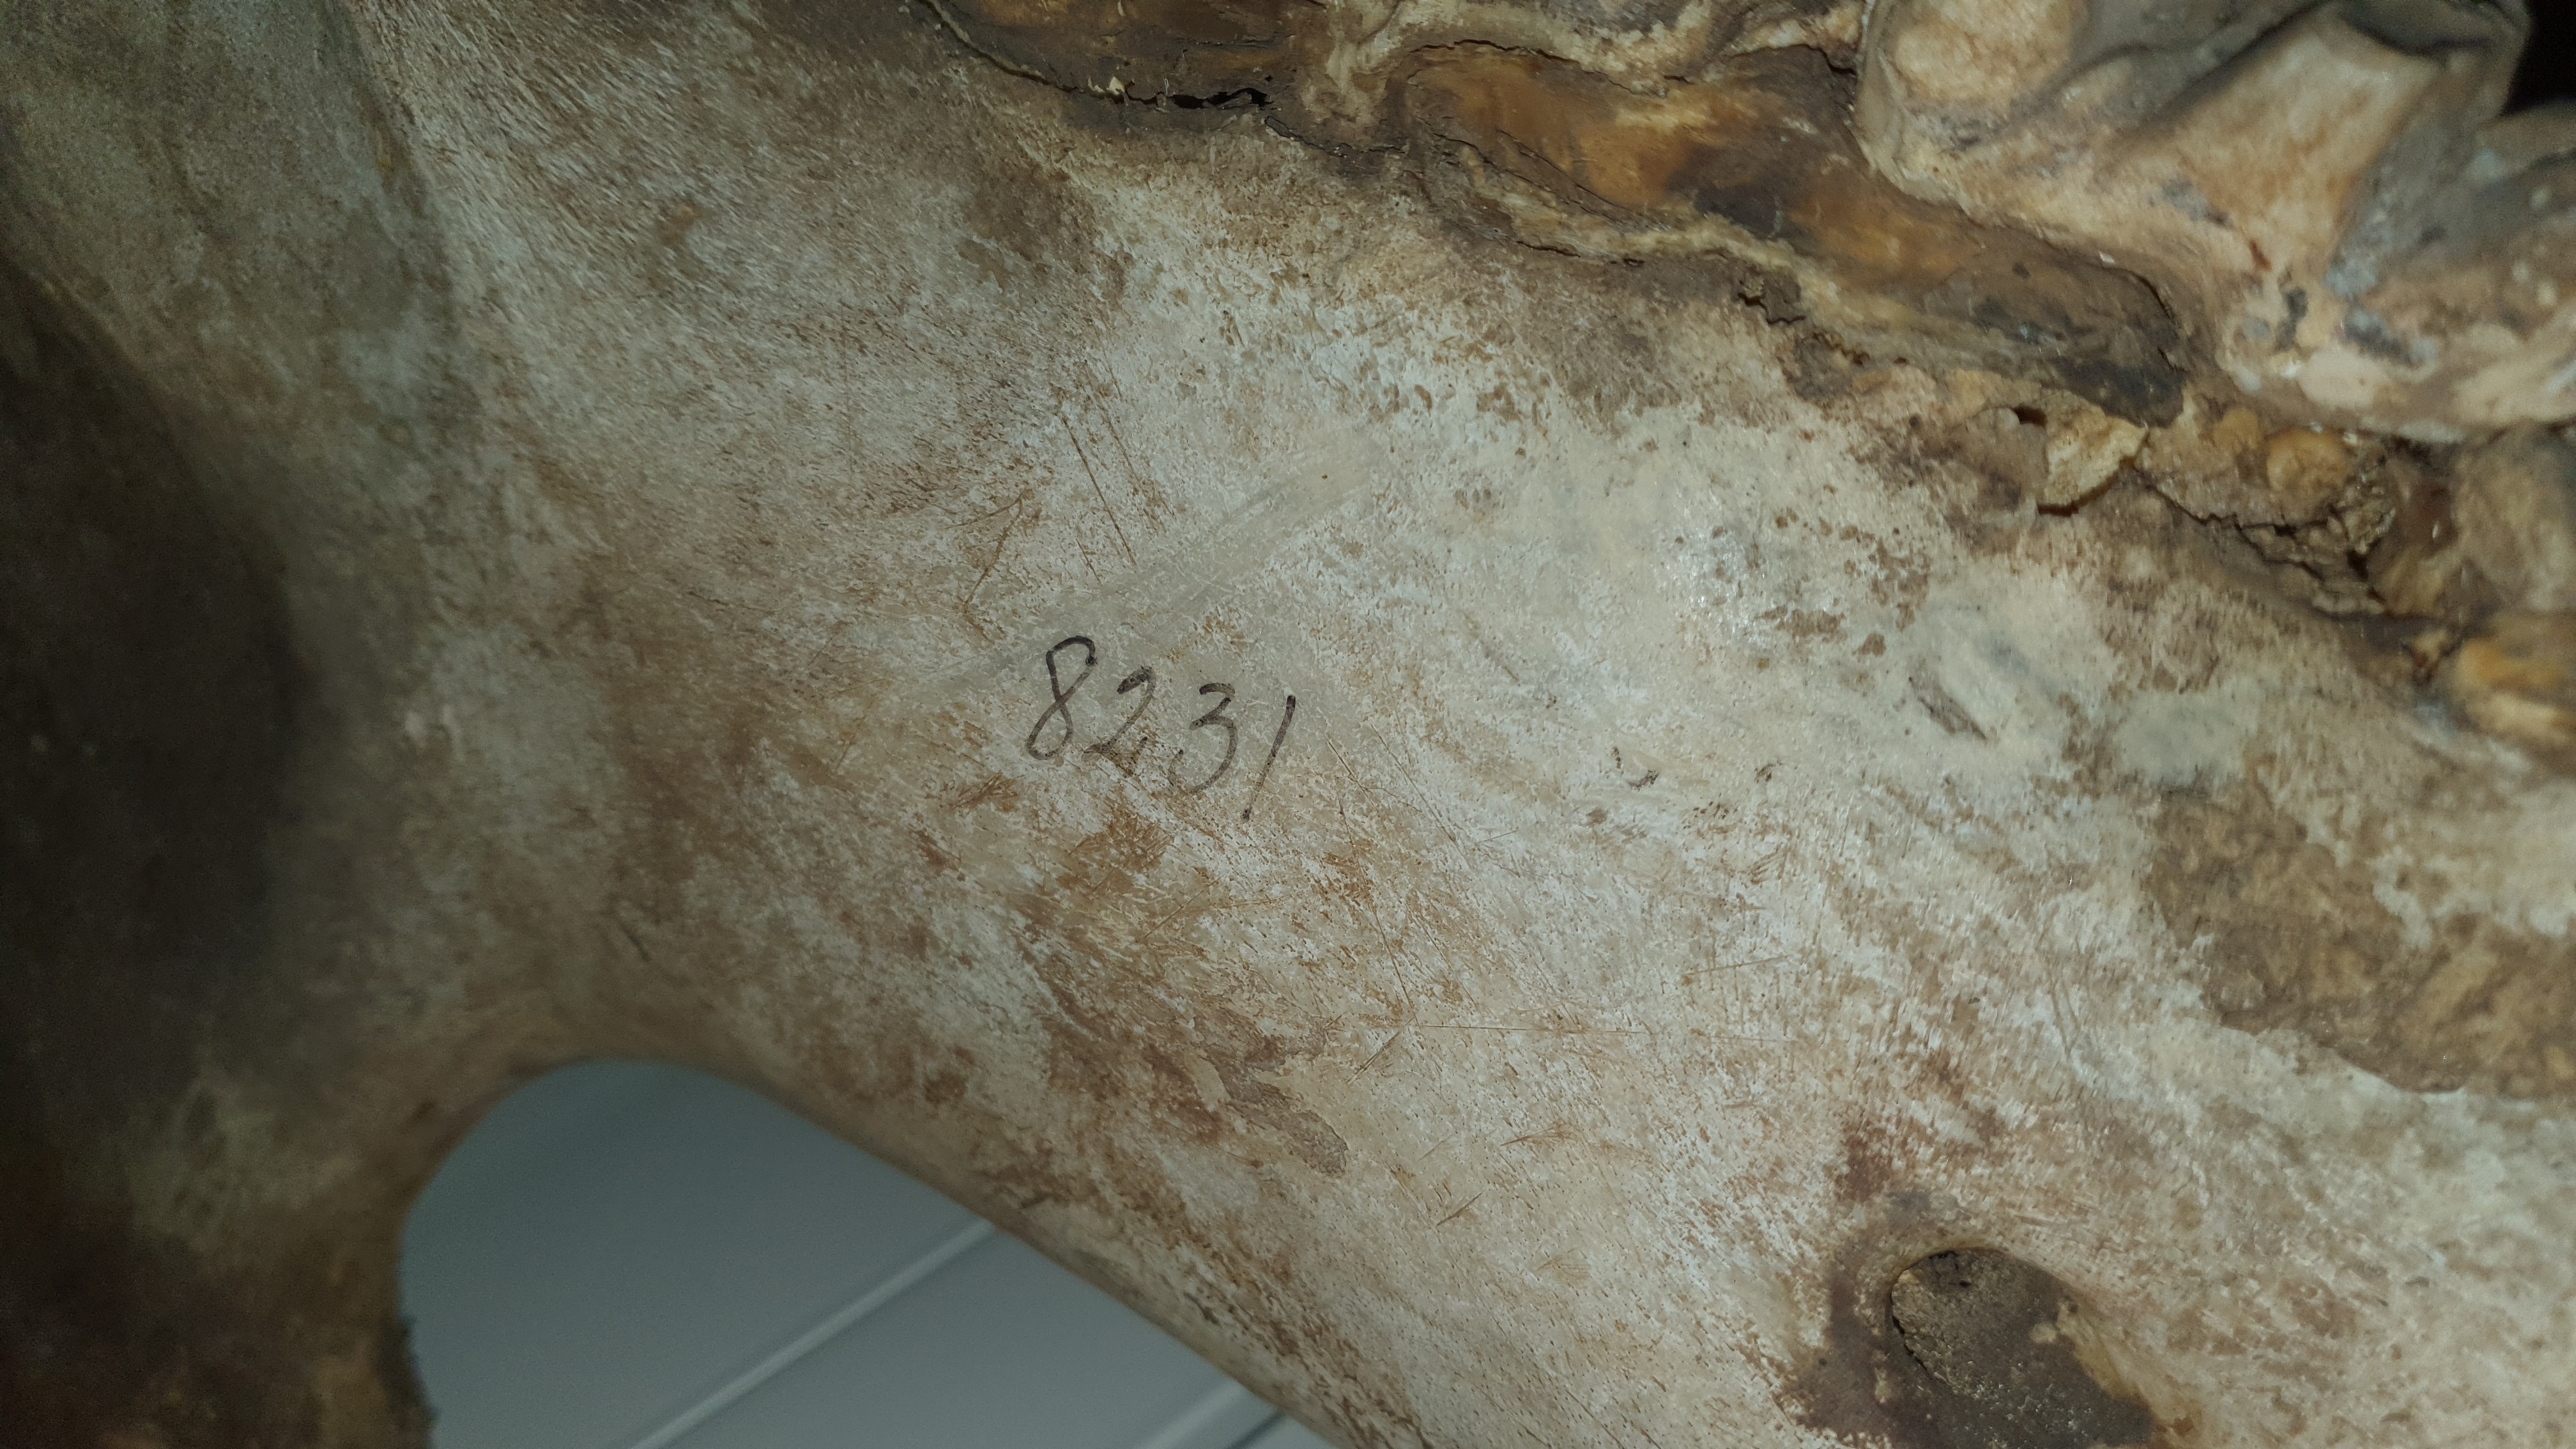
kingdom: Animalia
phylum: Chordata
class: Mammalia
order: Artiodactyla
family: Hippopotamidae
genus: Hippopotamus
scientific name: Hippopotamus amphibius
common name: Common hippopotamus
